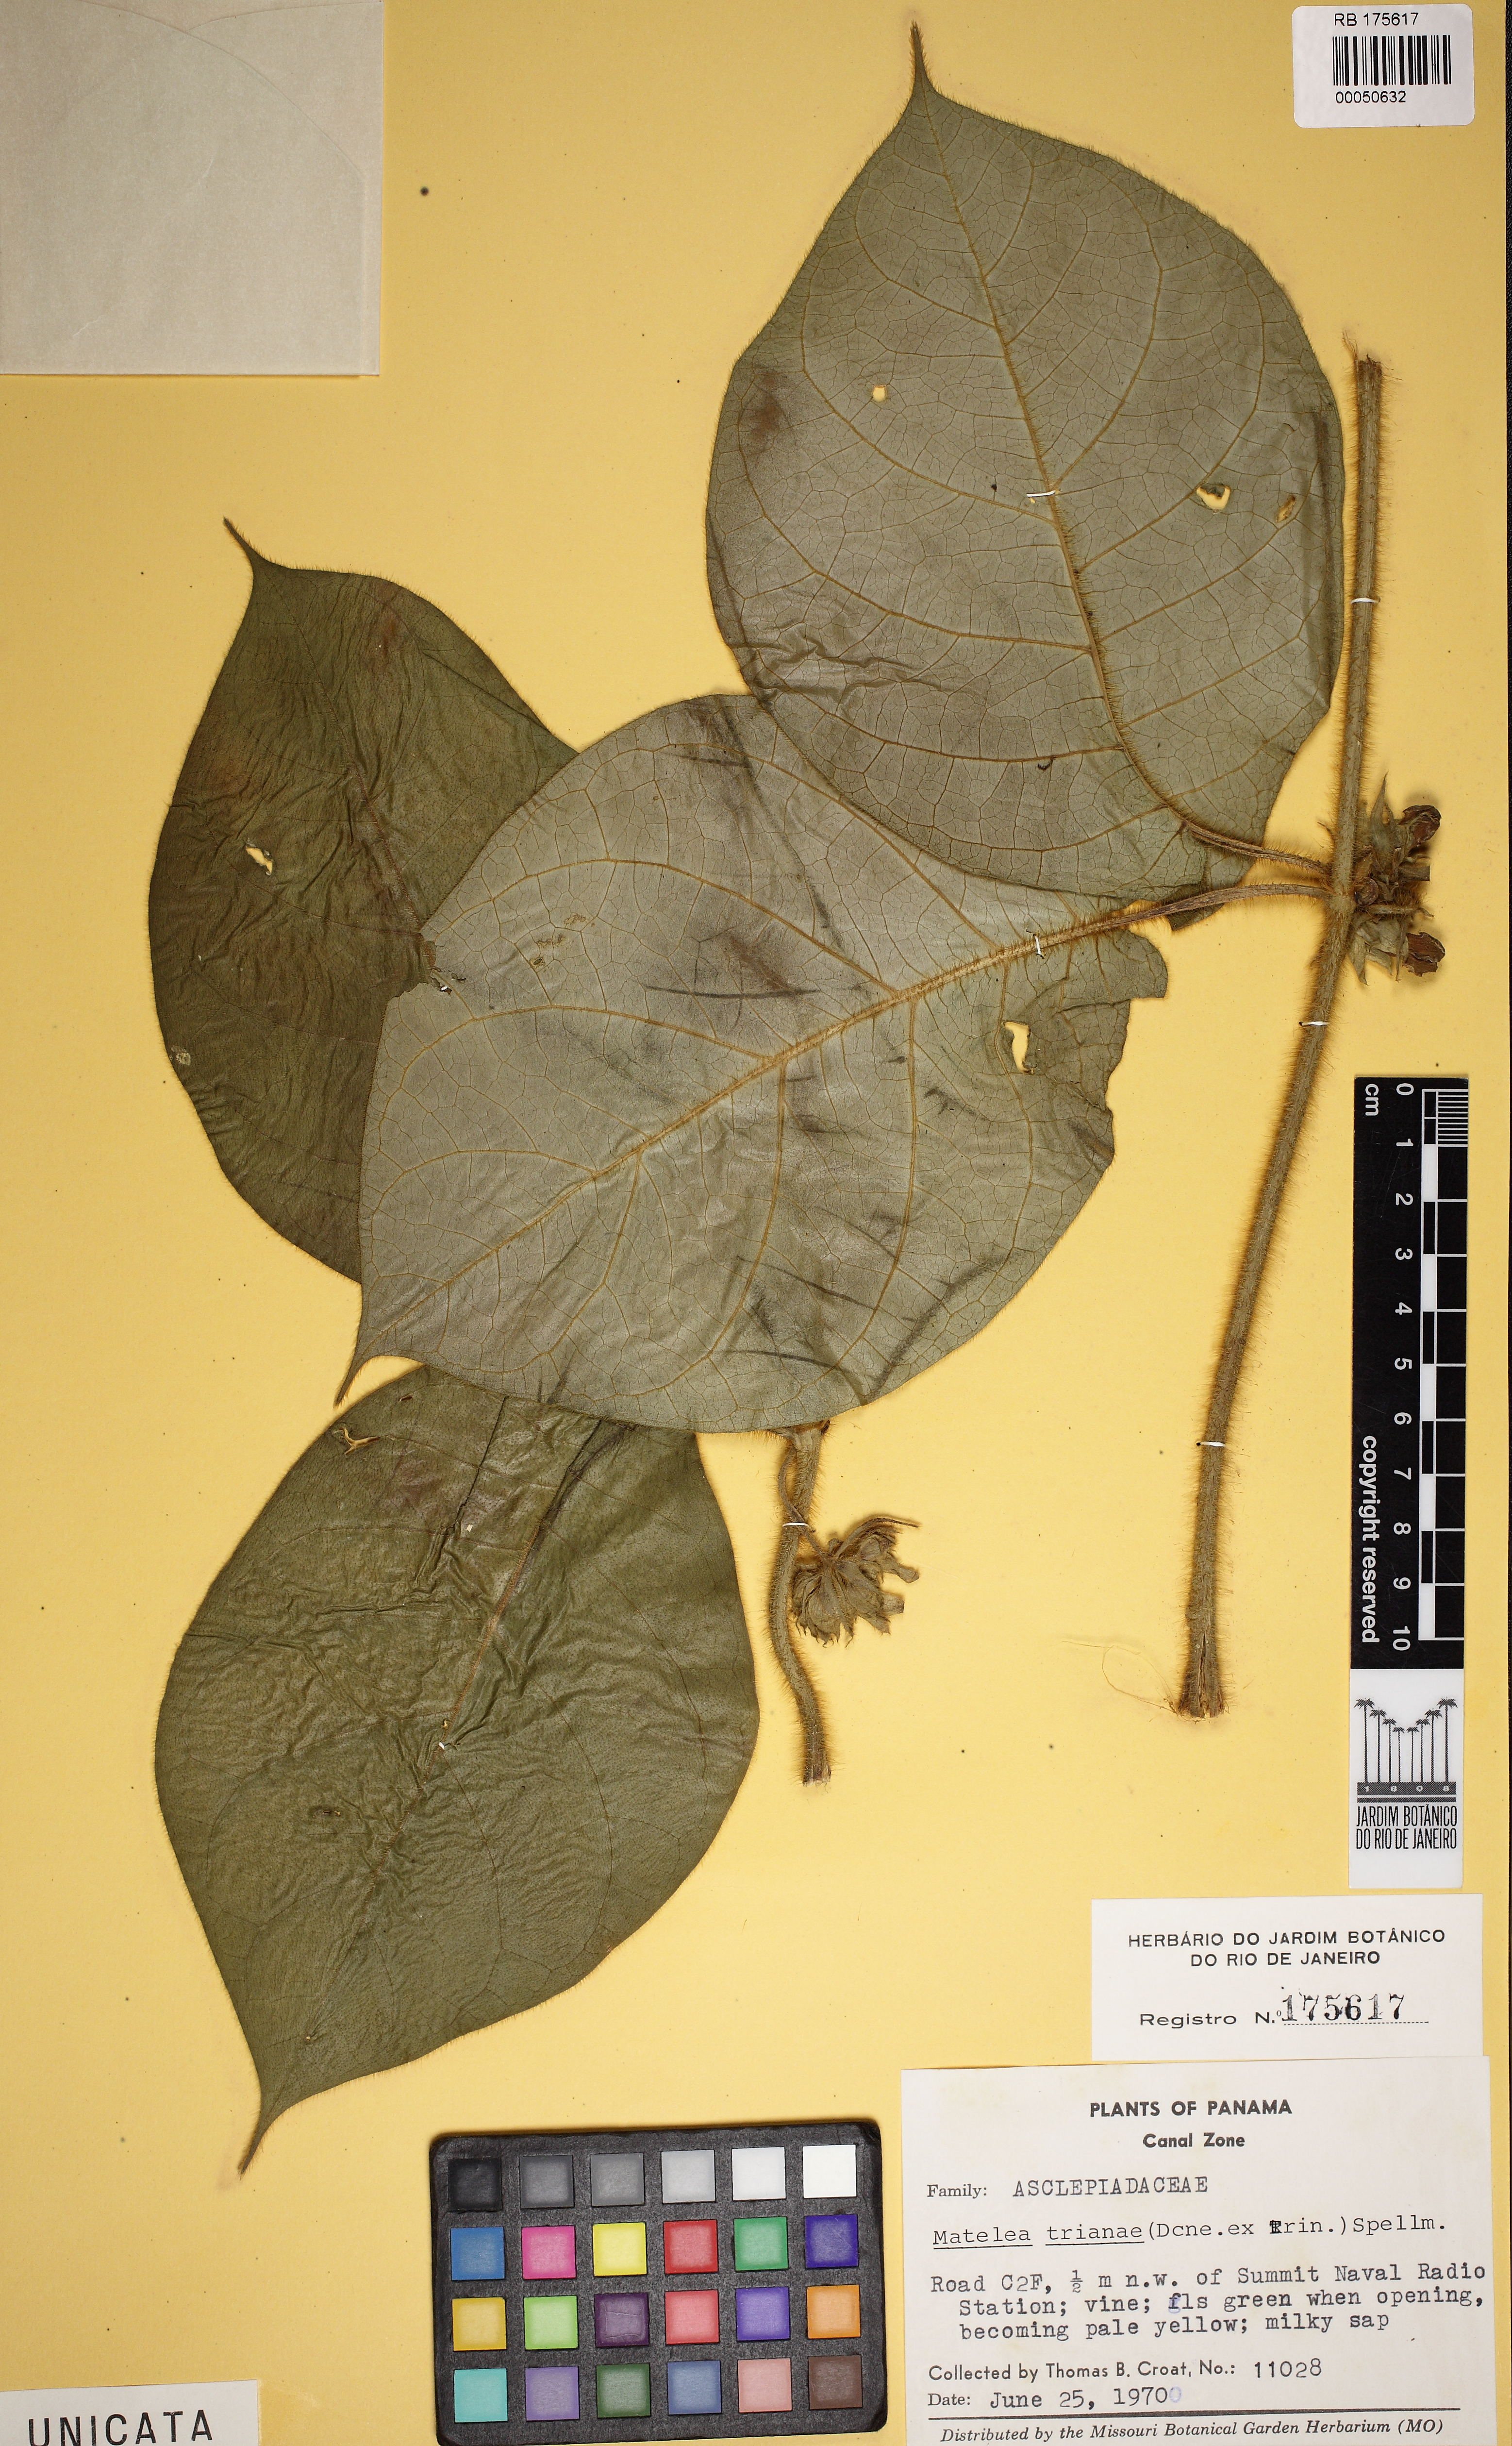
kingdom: Plantae
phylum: Tracheophyta
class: Magnoliopsida
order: Gentianales
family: Apocynaceae
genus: Macroscepis
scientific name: Macroscepis hirsuta
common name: Rattan
